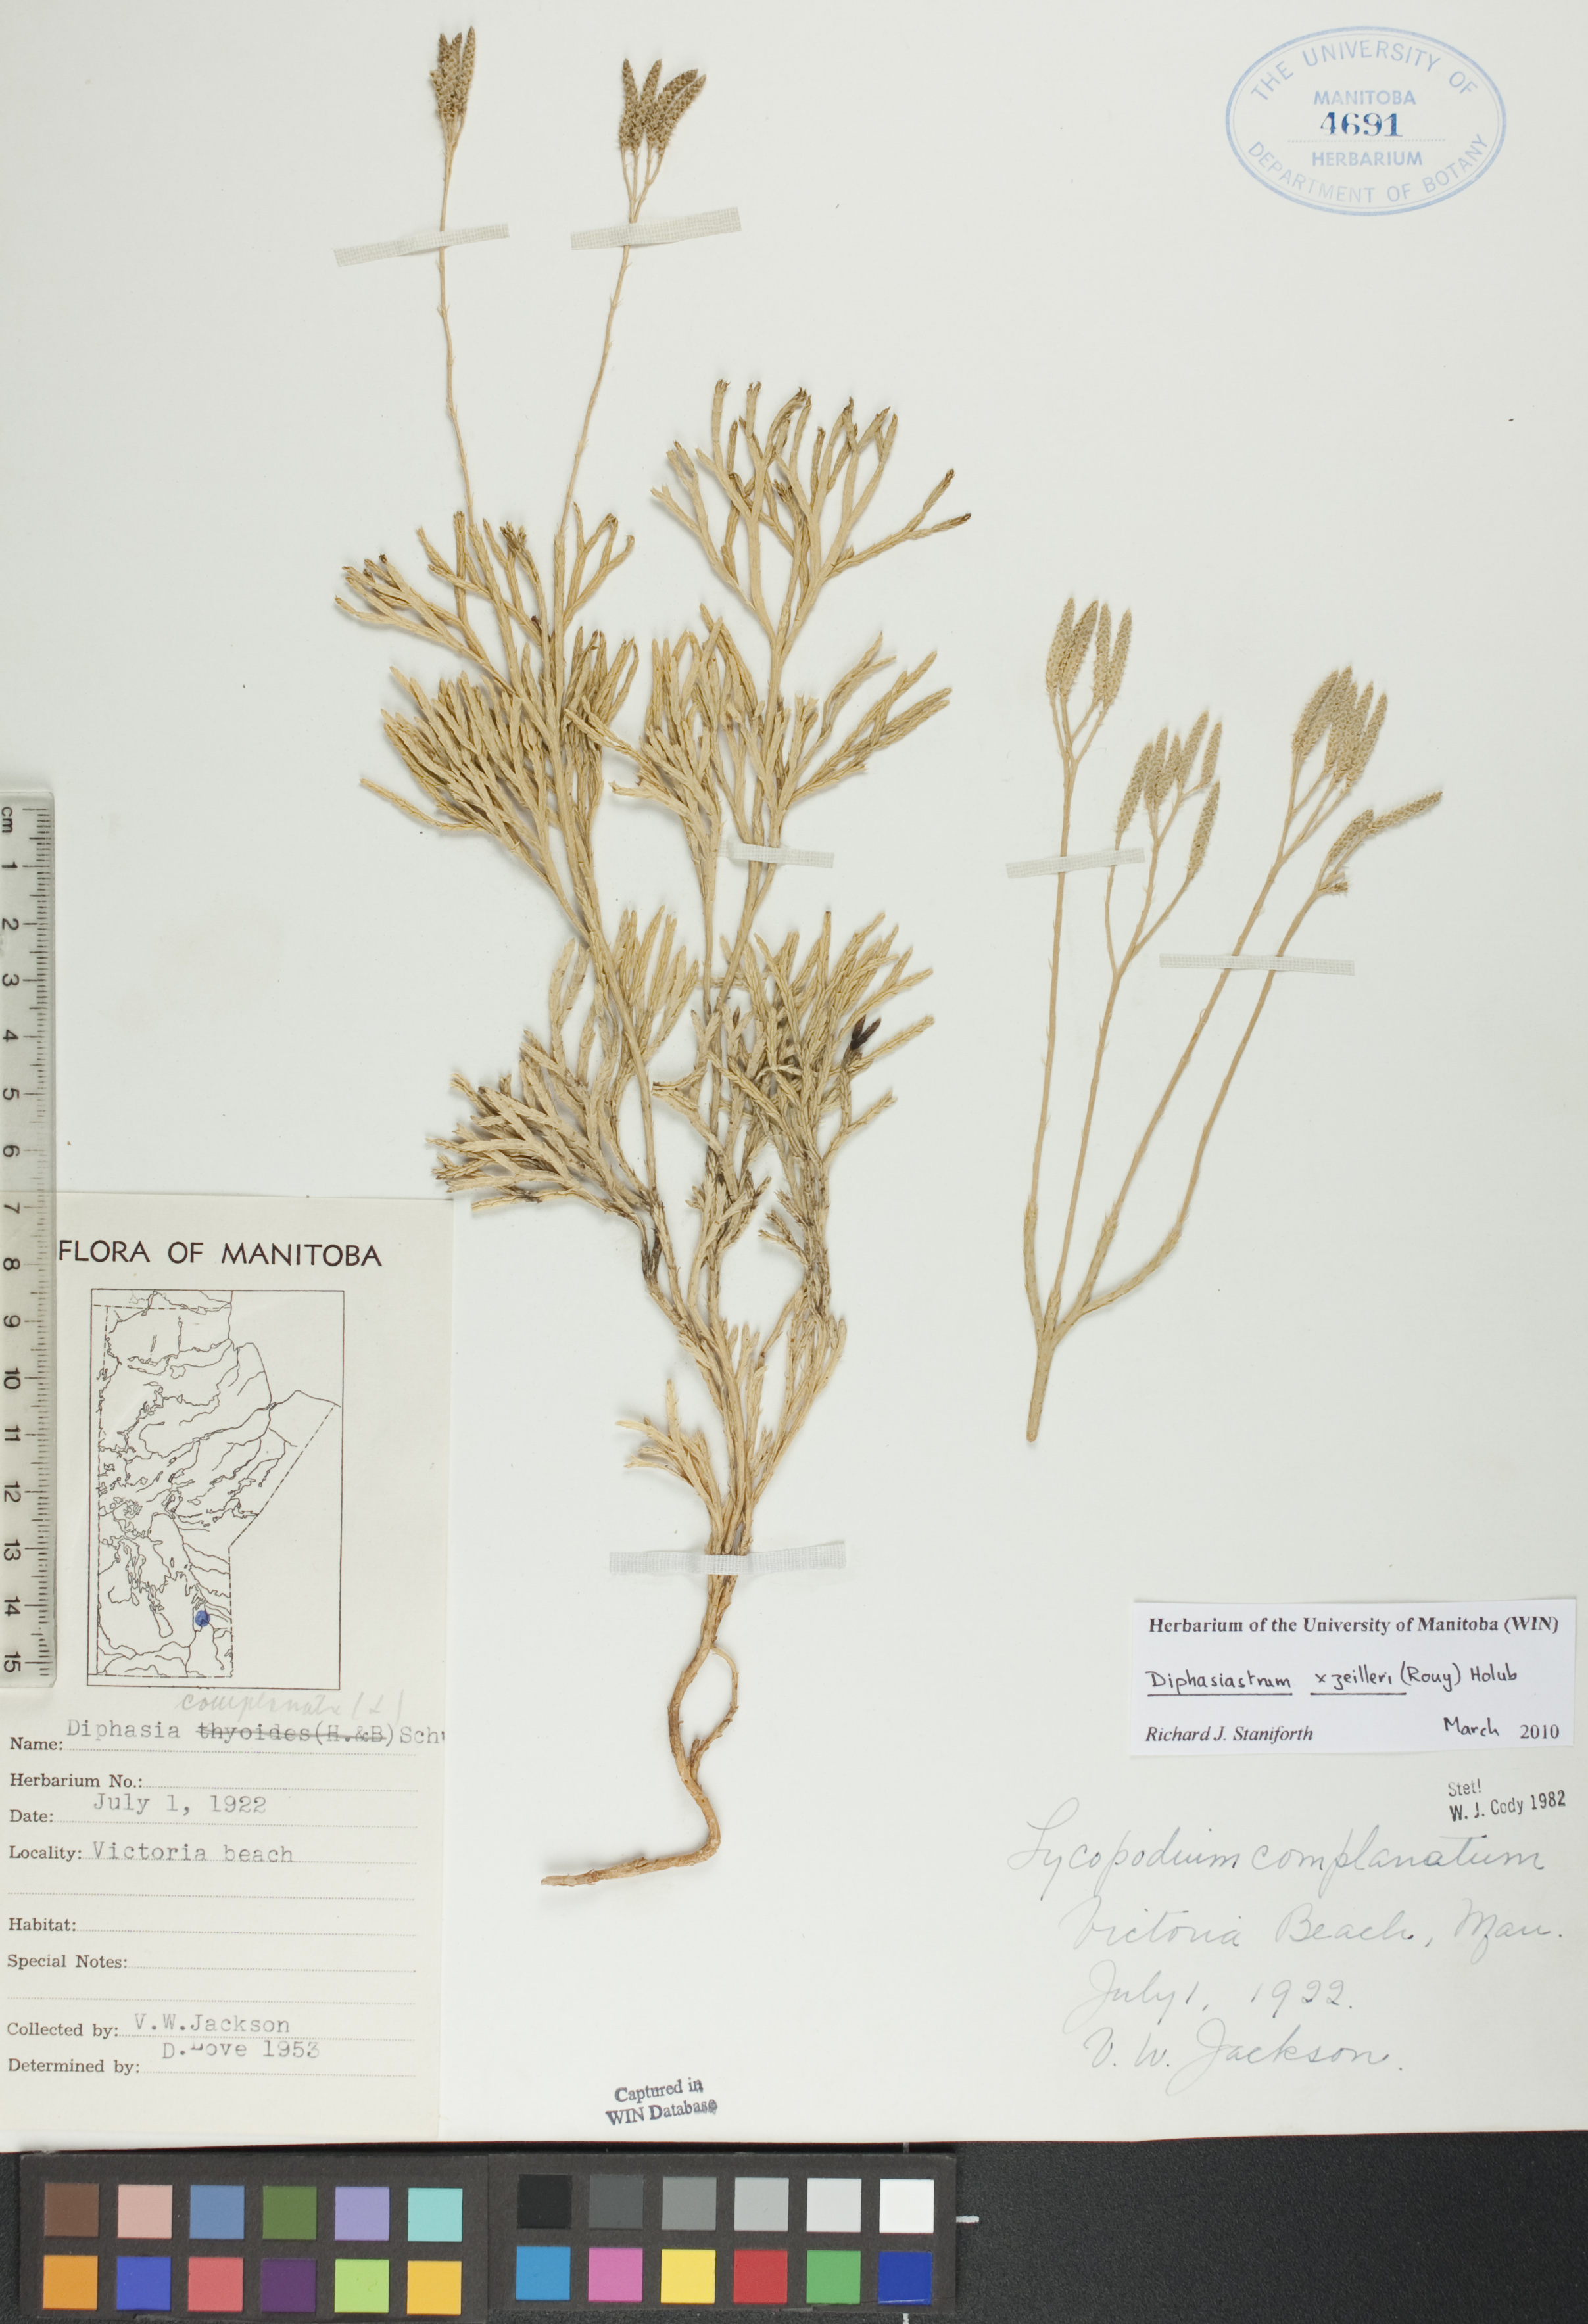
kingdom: Plantae
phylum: Tracheophyta
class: Lycopodiopsida
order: Lycopodiales
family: Lycopodiaceae
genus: Diphasiastrum
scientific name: Diphasiastrum zeilleri
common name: Zeiller's clubmoss
